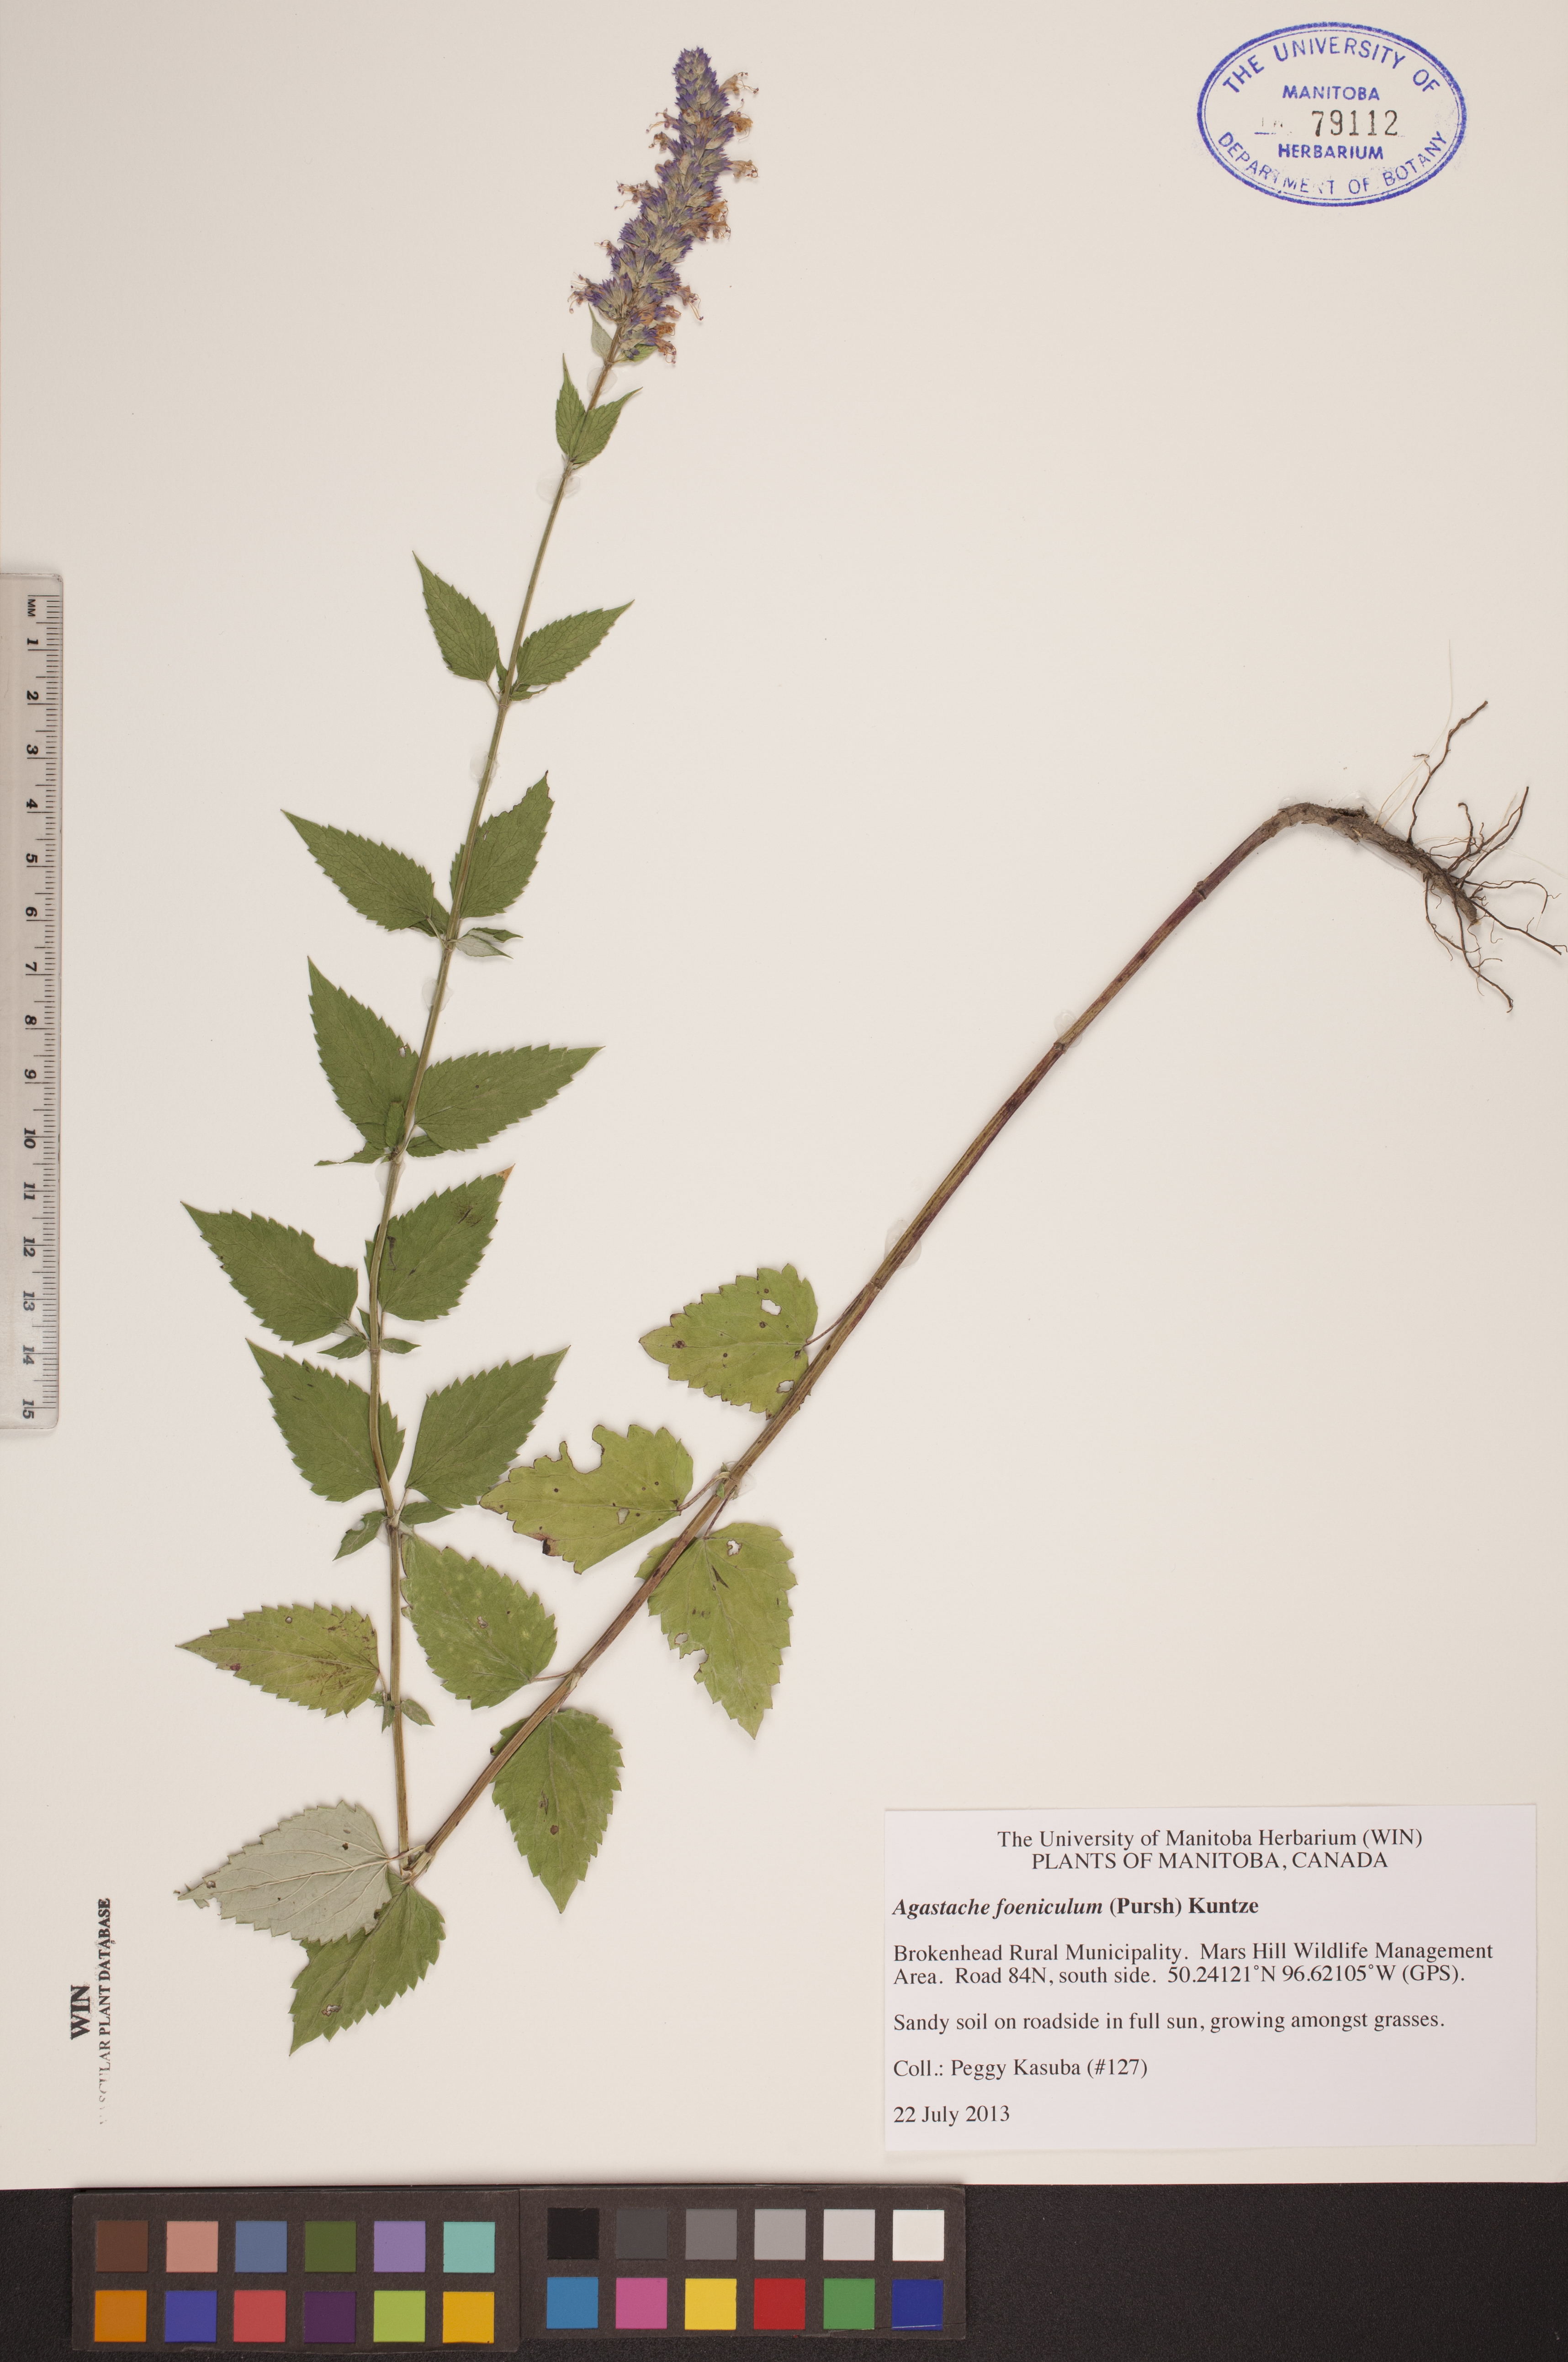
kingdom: Plantae
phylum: Tracheophyta
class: Magnoliopsida
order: Lamiales
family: Lamiaceae
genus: Agastache
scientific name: Agastache foeniculum
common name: Anise hyssop
